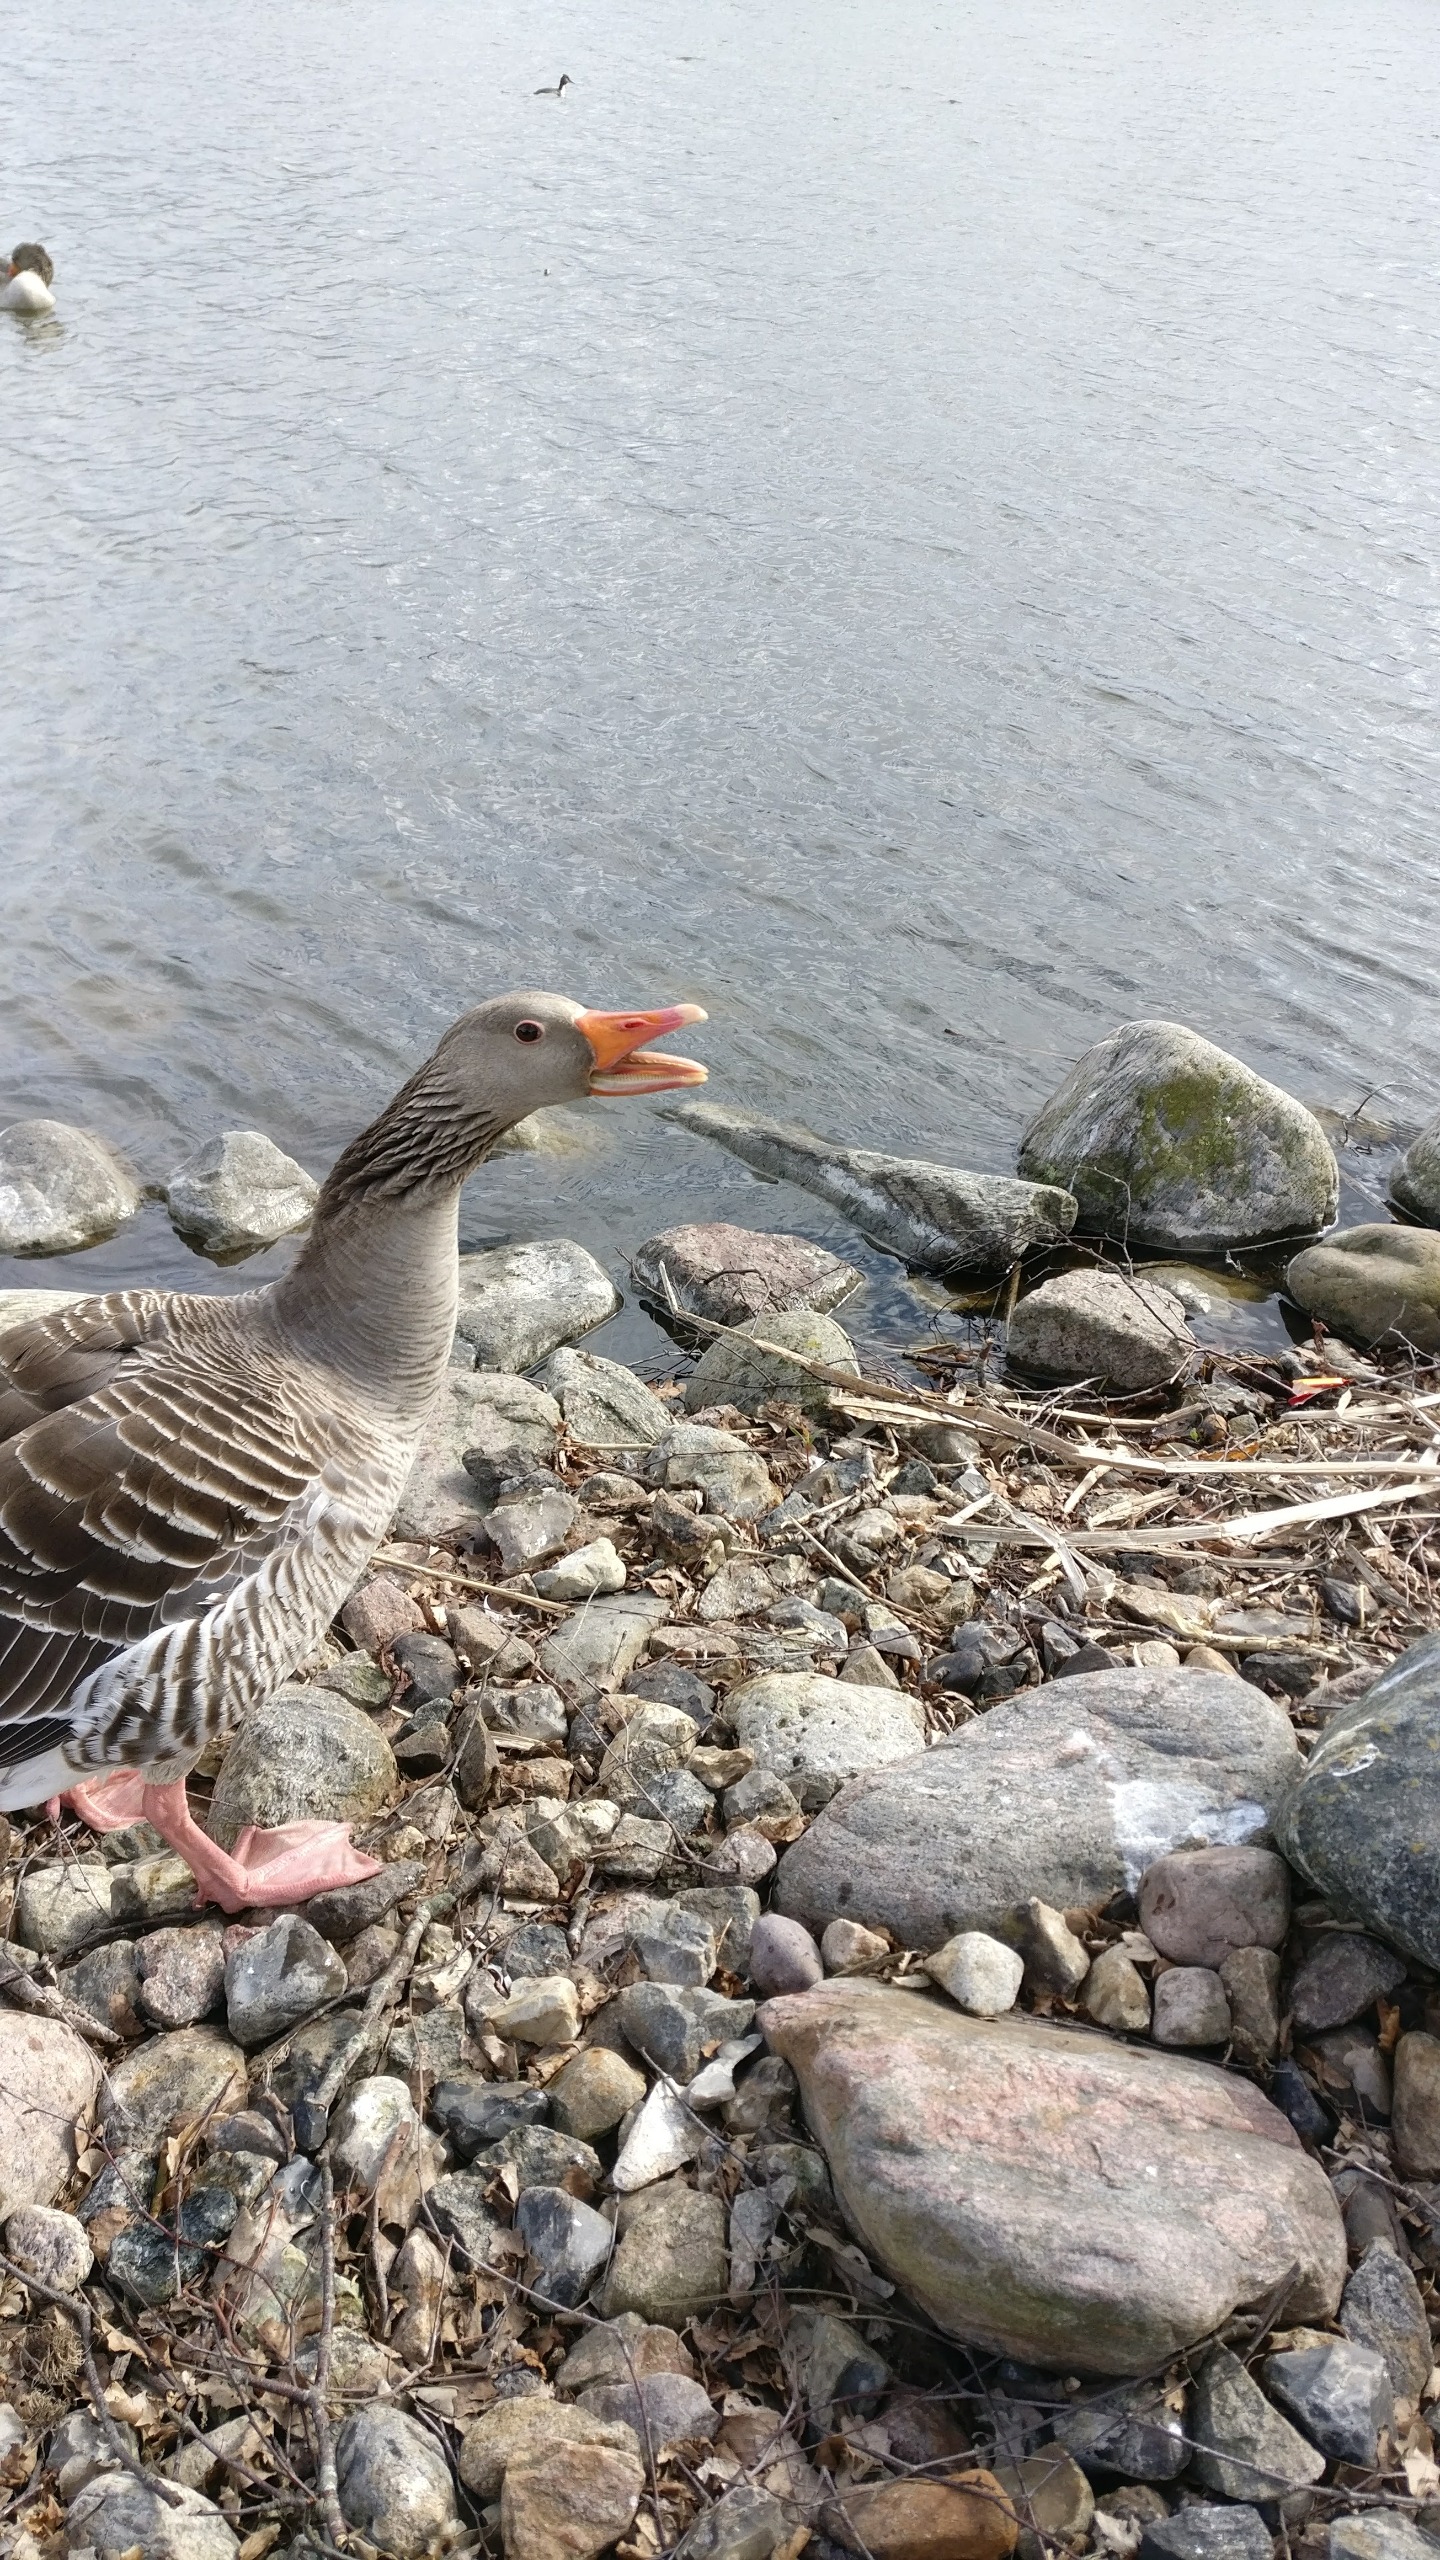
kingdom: Animalia
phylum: Chordata
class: Aves
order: Anseriformes
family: Anatidae
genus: Anser
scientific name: Anser anser
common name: Grågås
